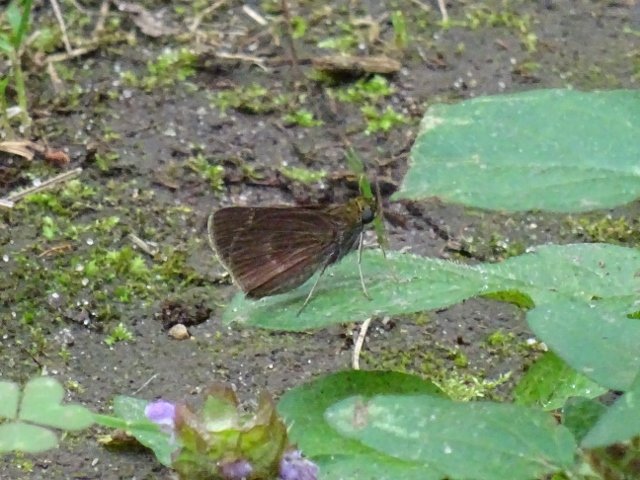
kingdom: Animalia
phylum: Arthropoda
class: Insecta
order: Lepidoptera
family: Hesperiidae
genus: Polites
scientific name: Polites egeremet
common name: Northern Broken-Dash
